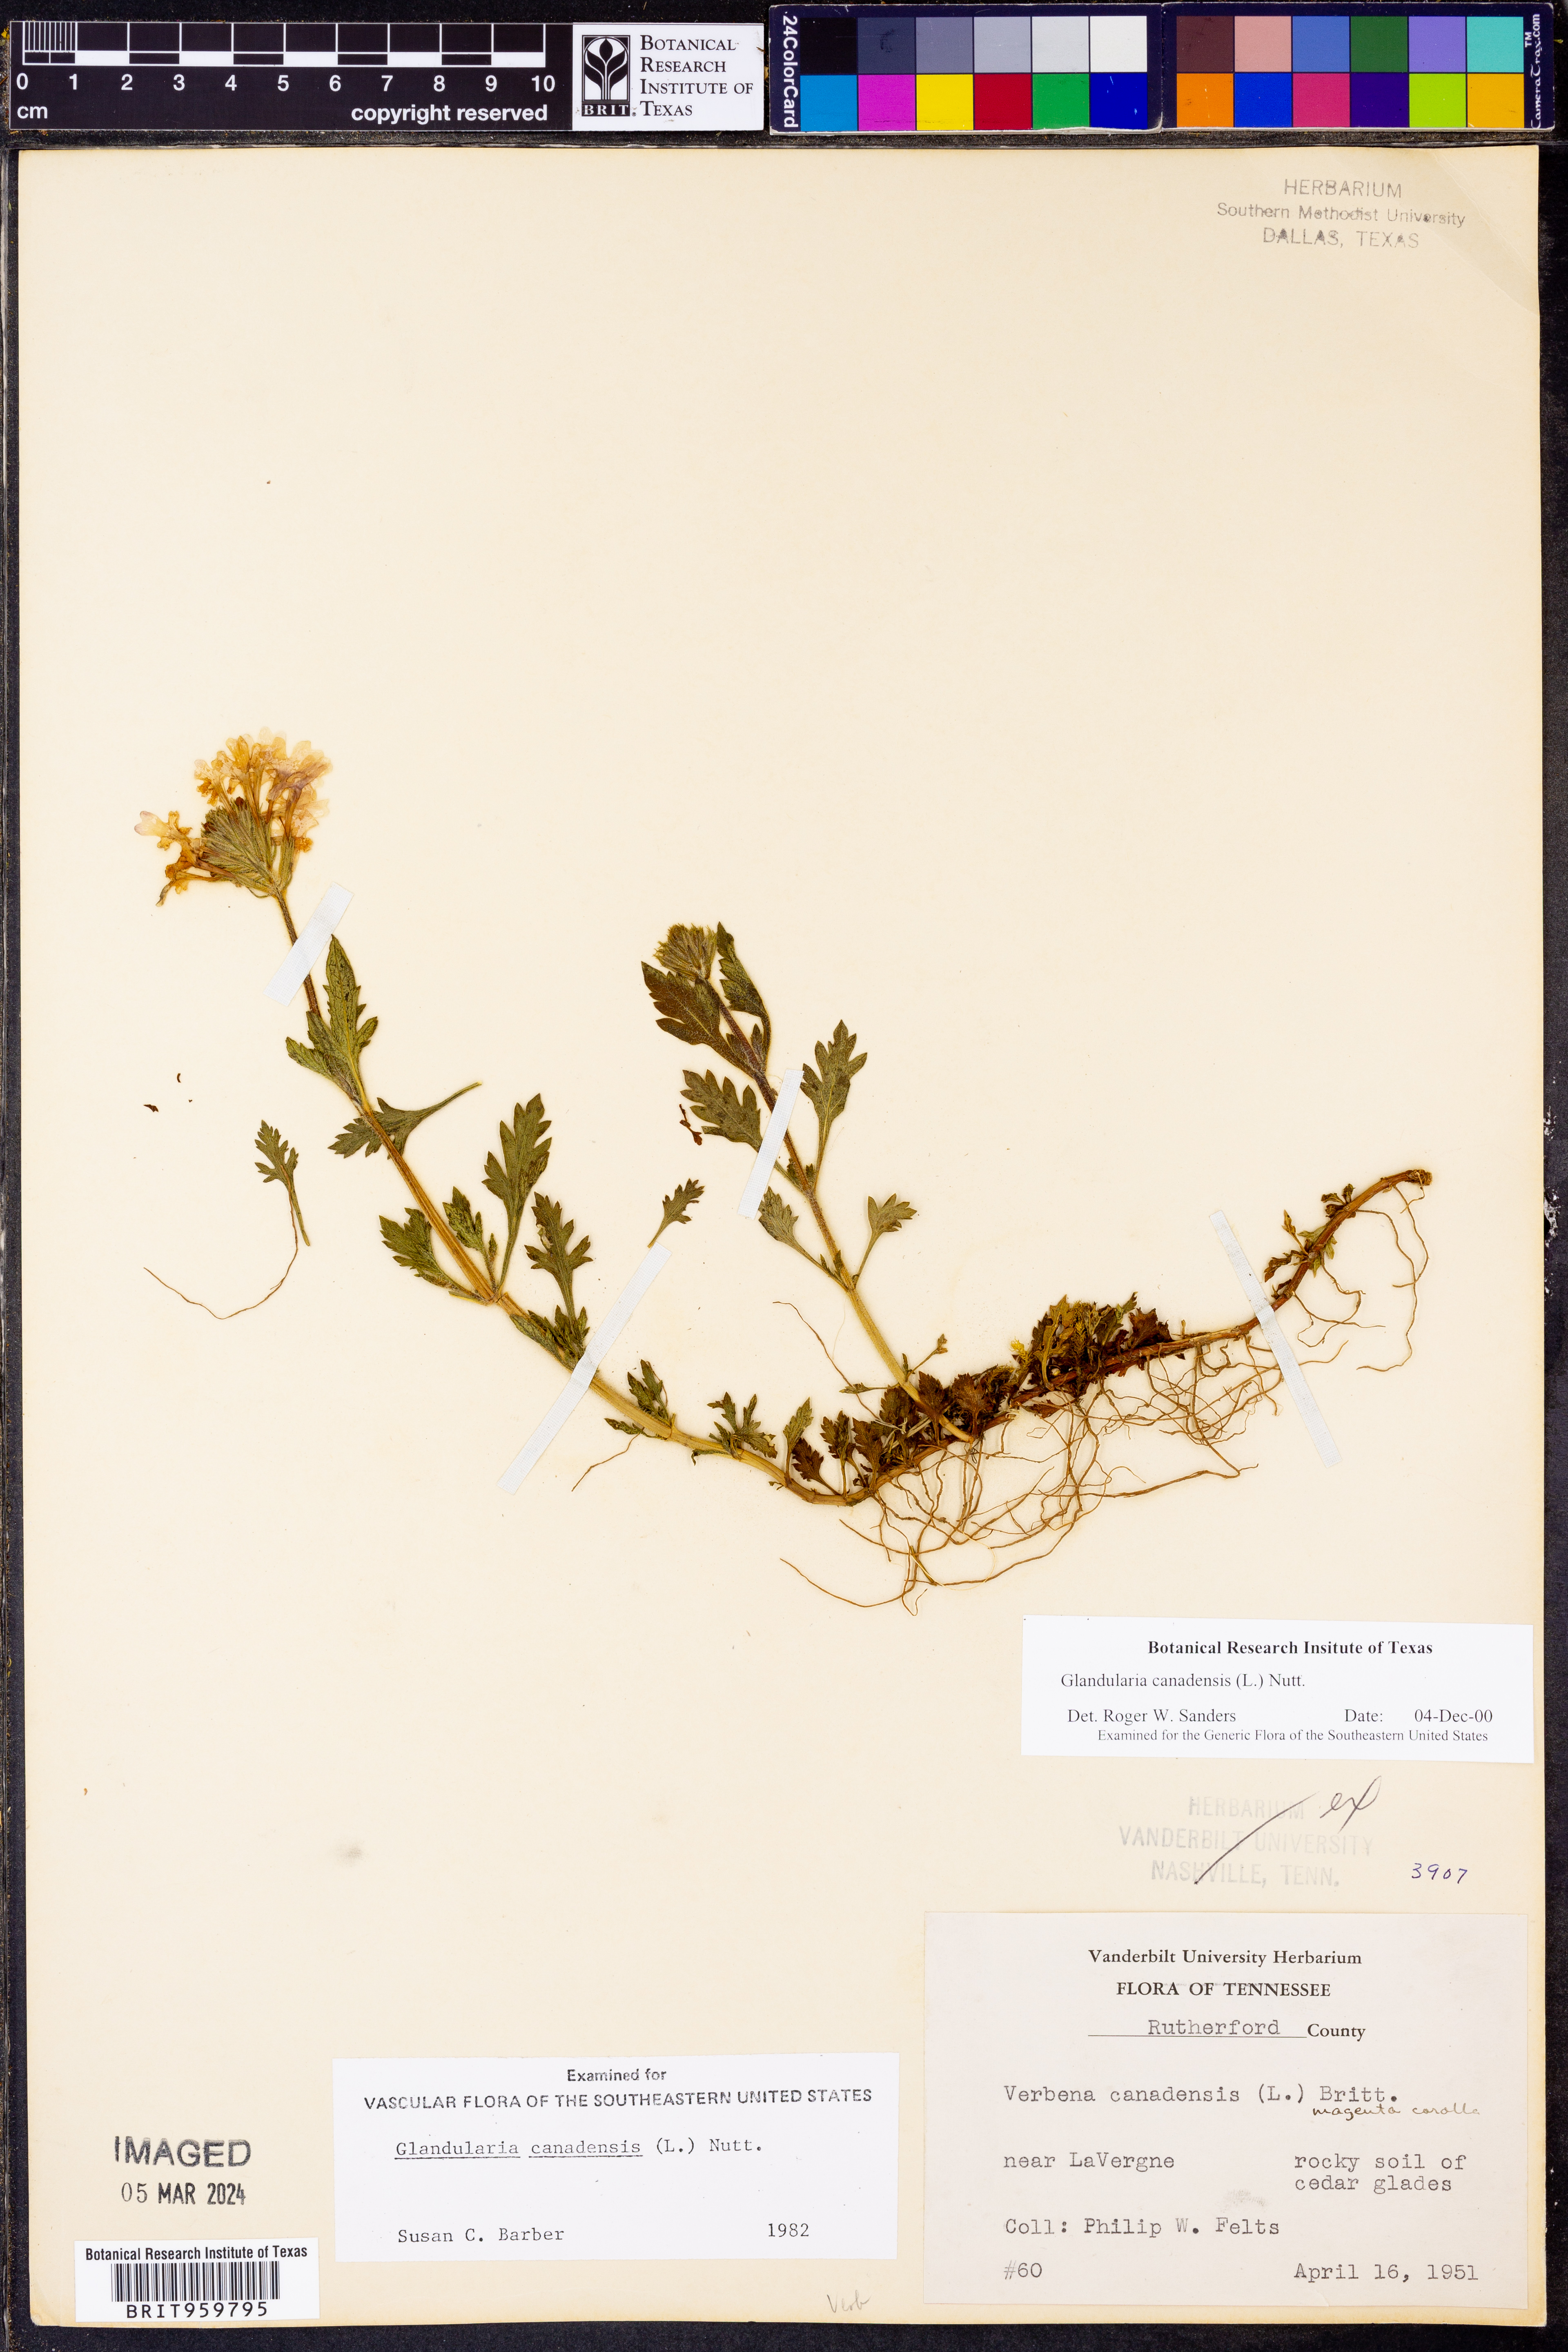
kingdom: Plantae
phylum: Tracheophyta
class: Magnoliopsida
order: Lamiales
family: Verbenaceae
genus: Verbena
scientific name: Verbena canadensis
